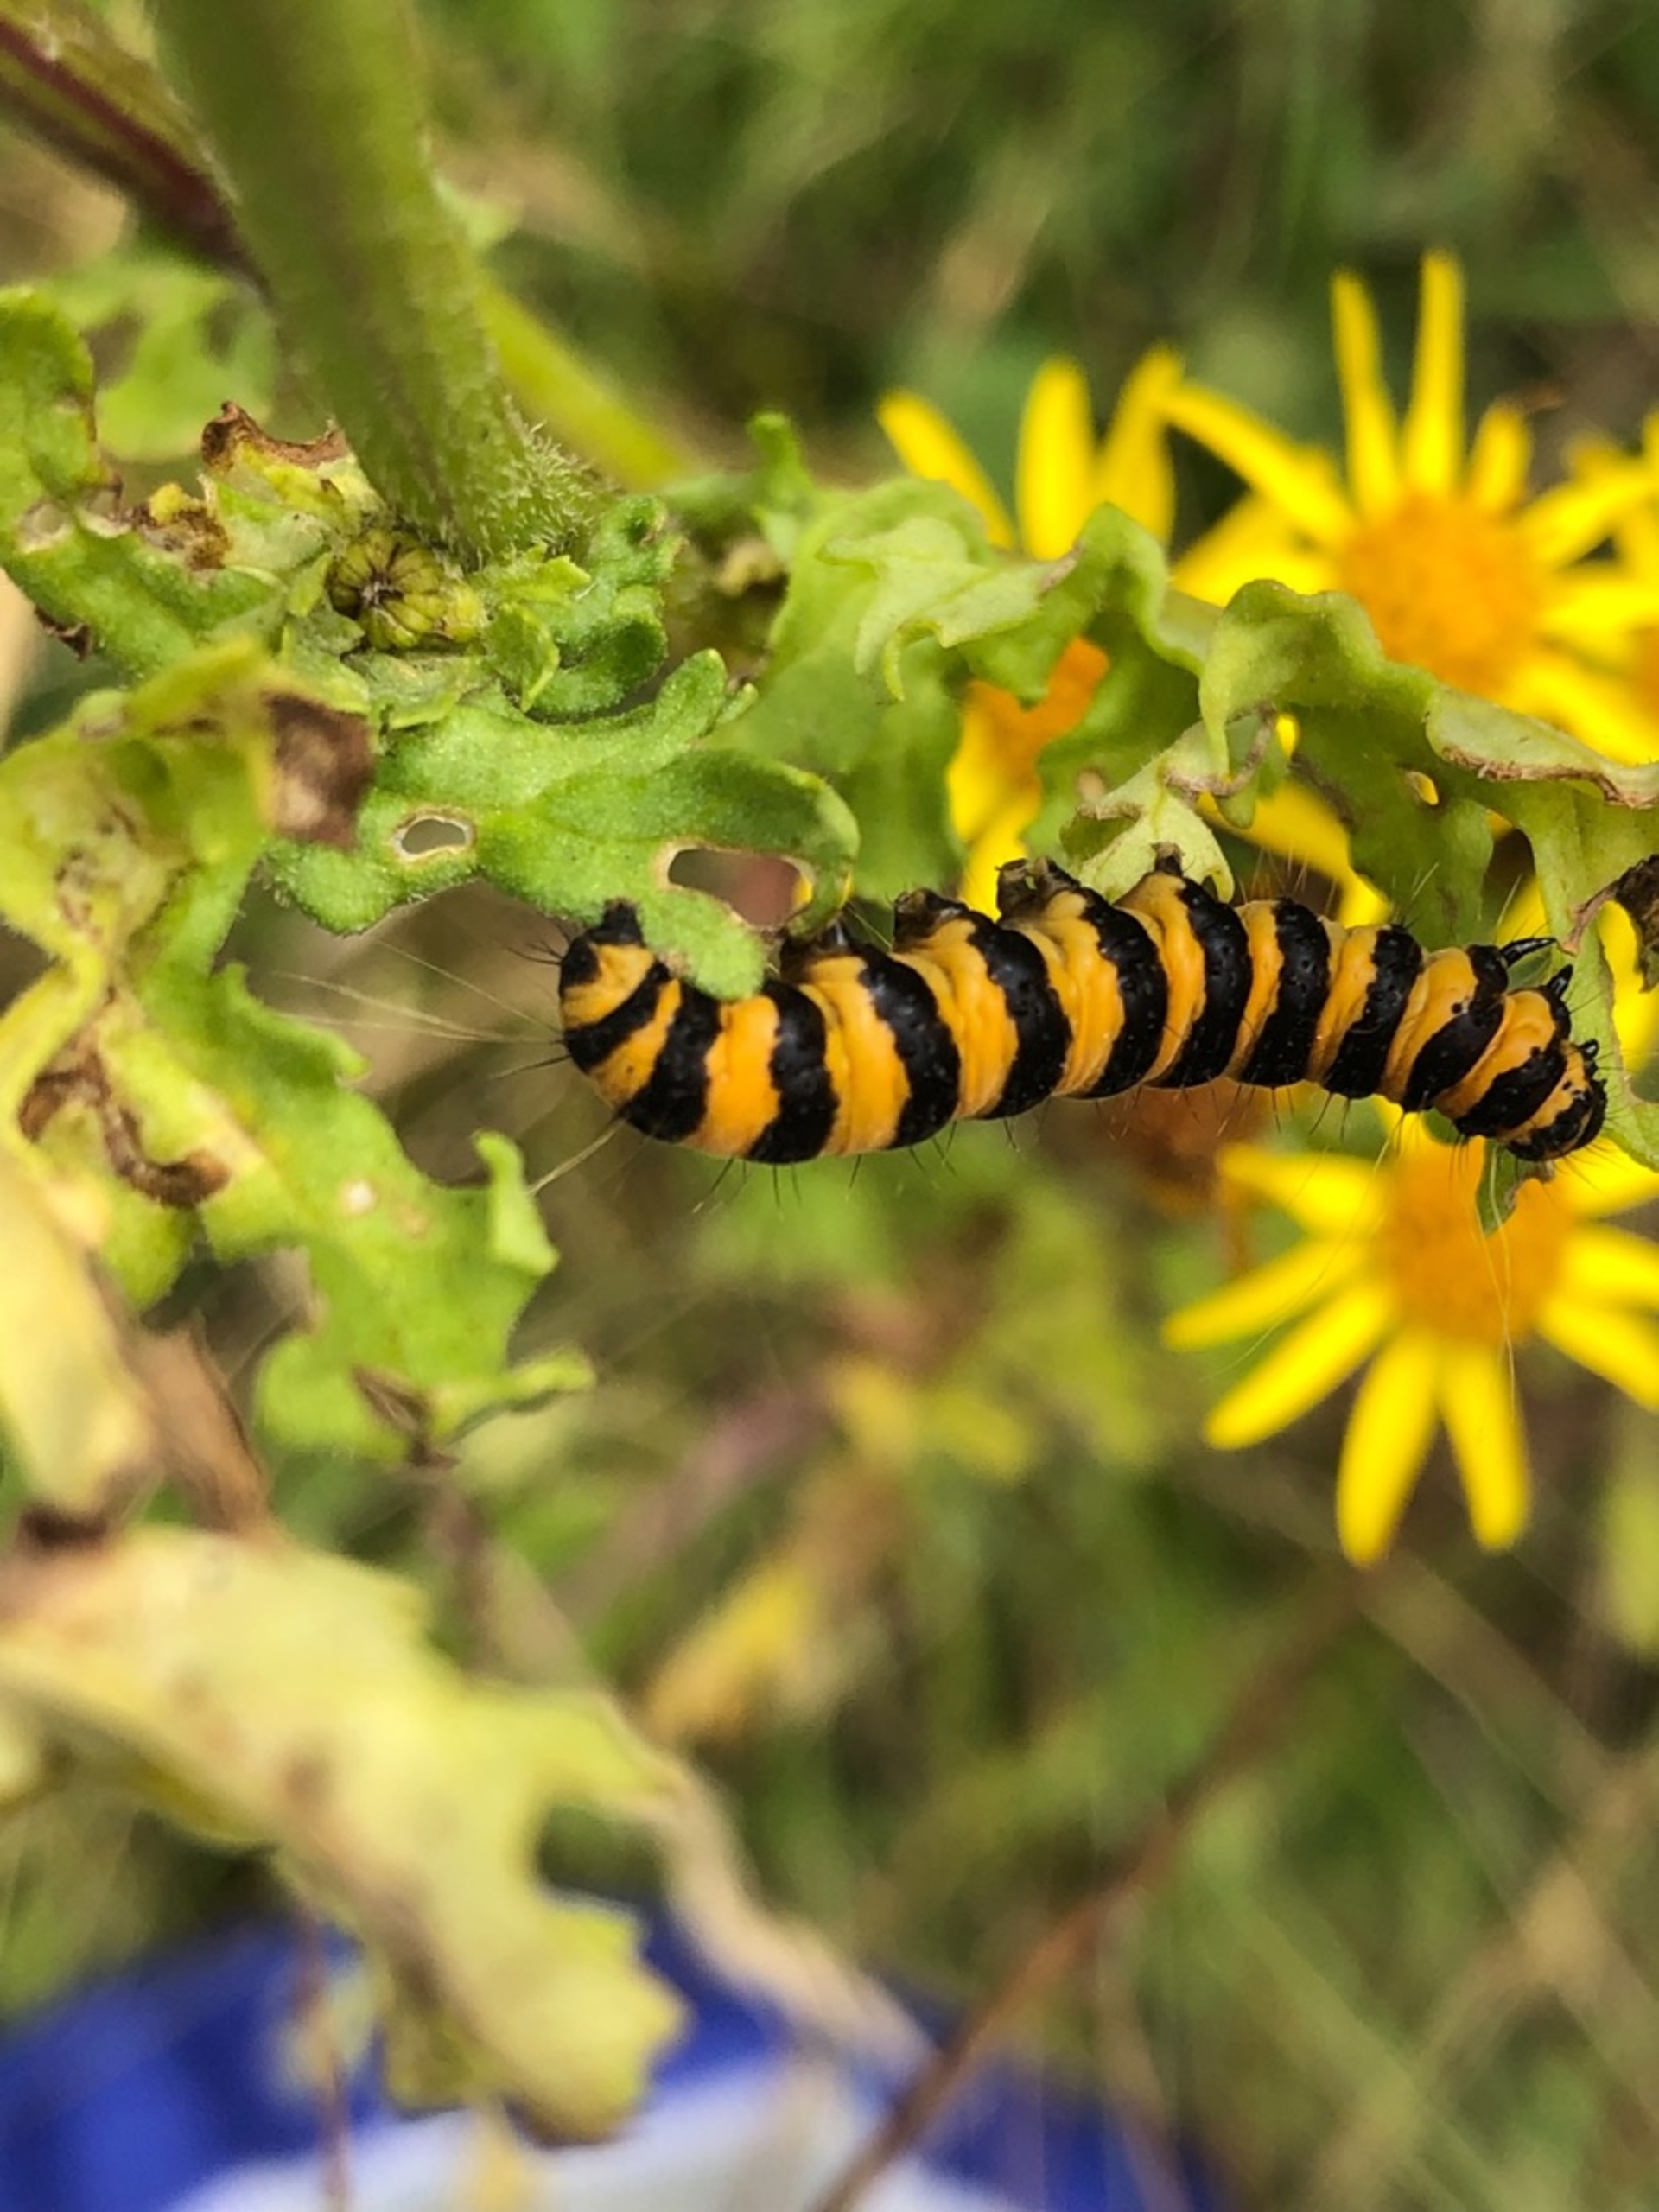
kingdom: Animalia
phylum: Arthropoda
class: Insecta
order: Lepidoptera
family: Erebidae
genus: Tyria
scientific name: Tyria jacobaeae
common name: Blodplet
